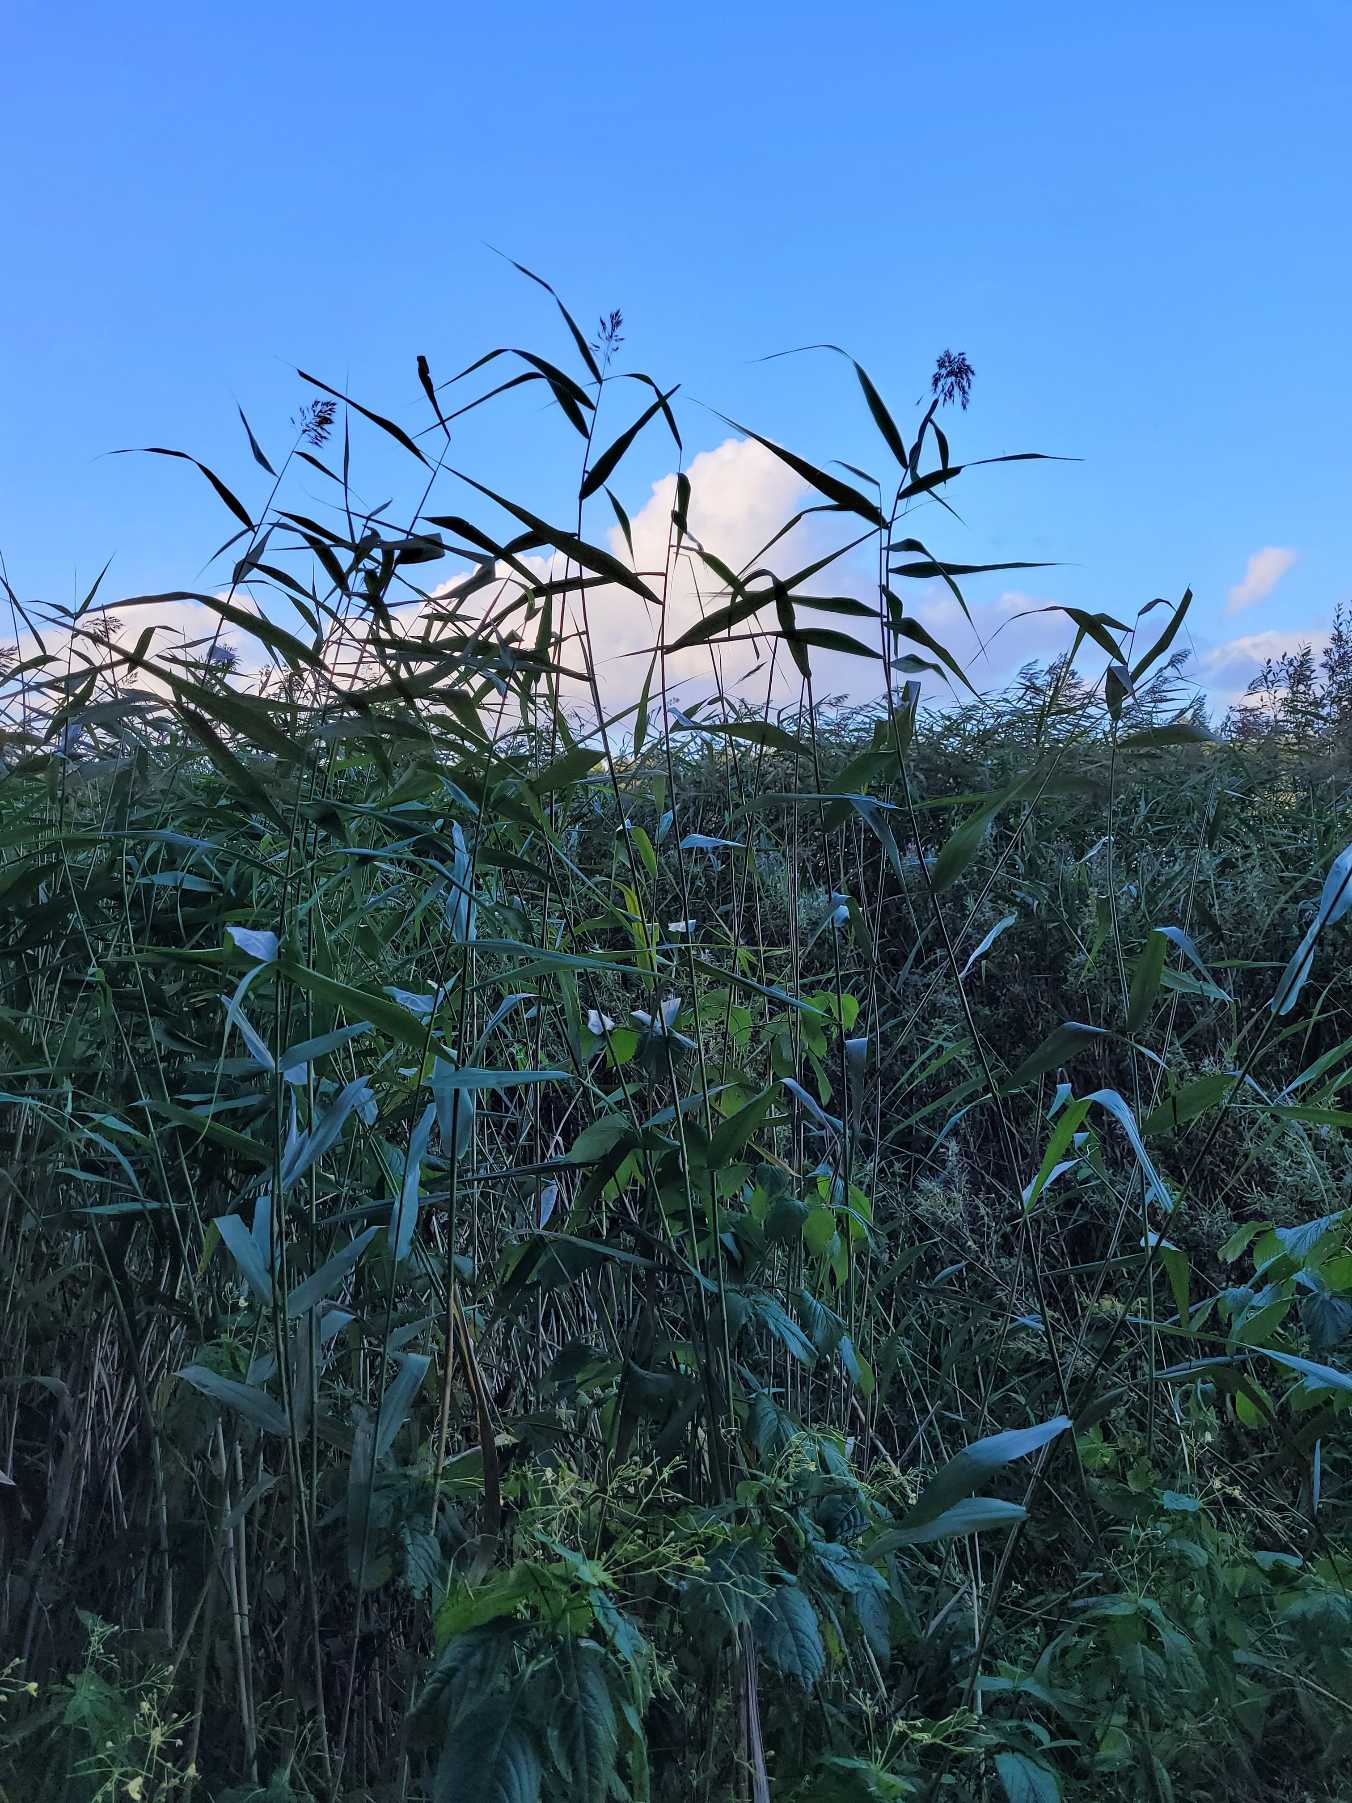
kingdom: Plantae
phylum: Tracheophyta
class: Liliopsida
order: Poales
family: Poaceae
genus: Phragmites
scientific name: Phragmites australis
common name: Tagrør
